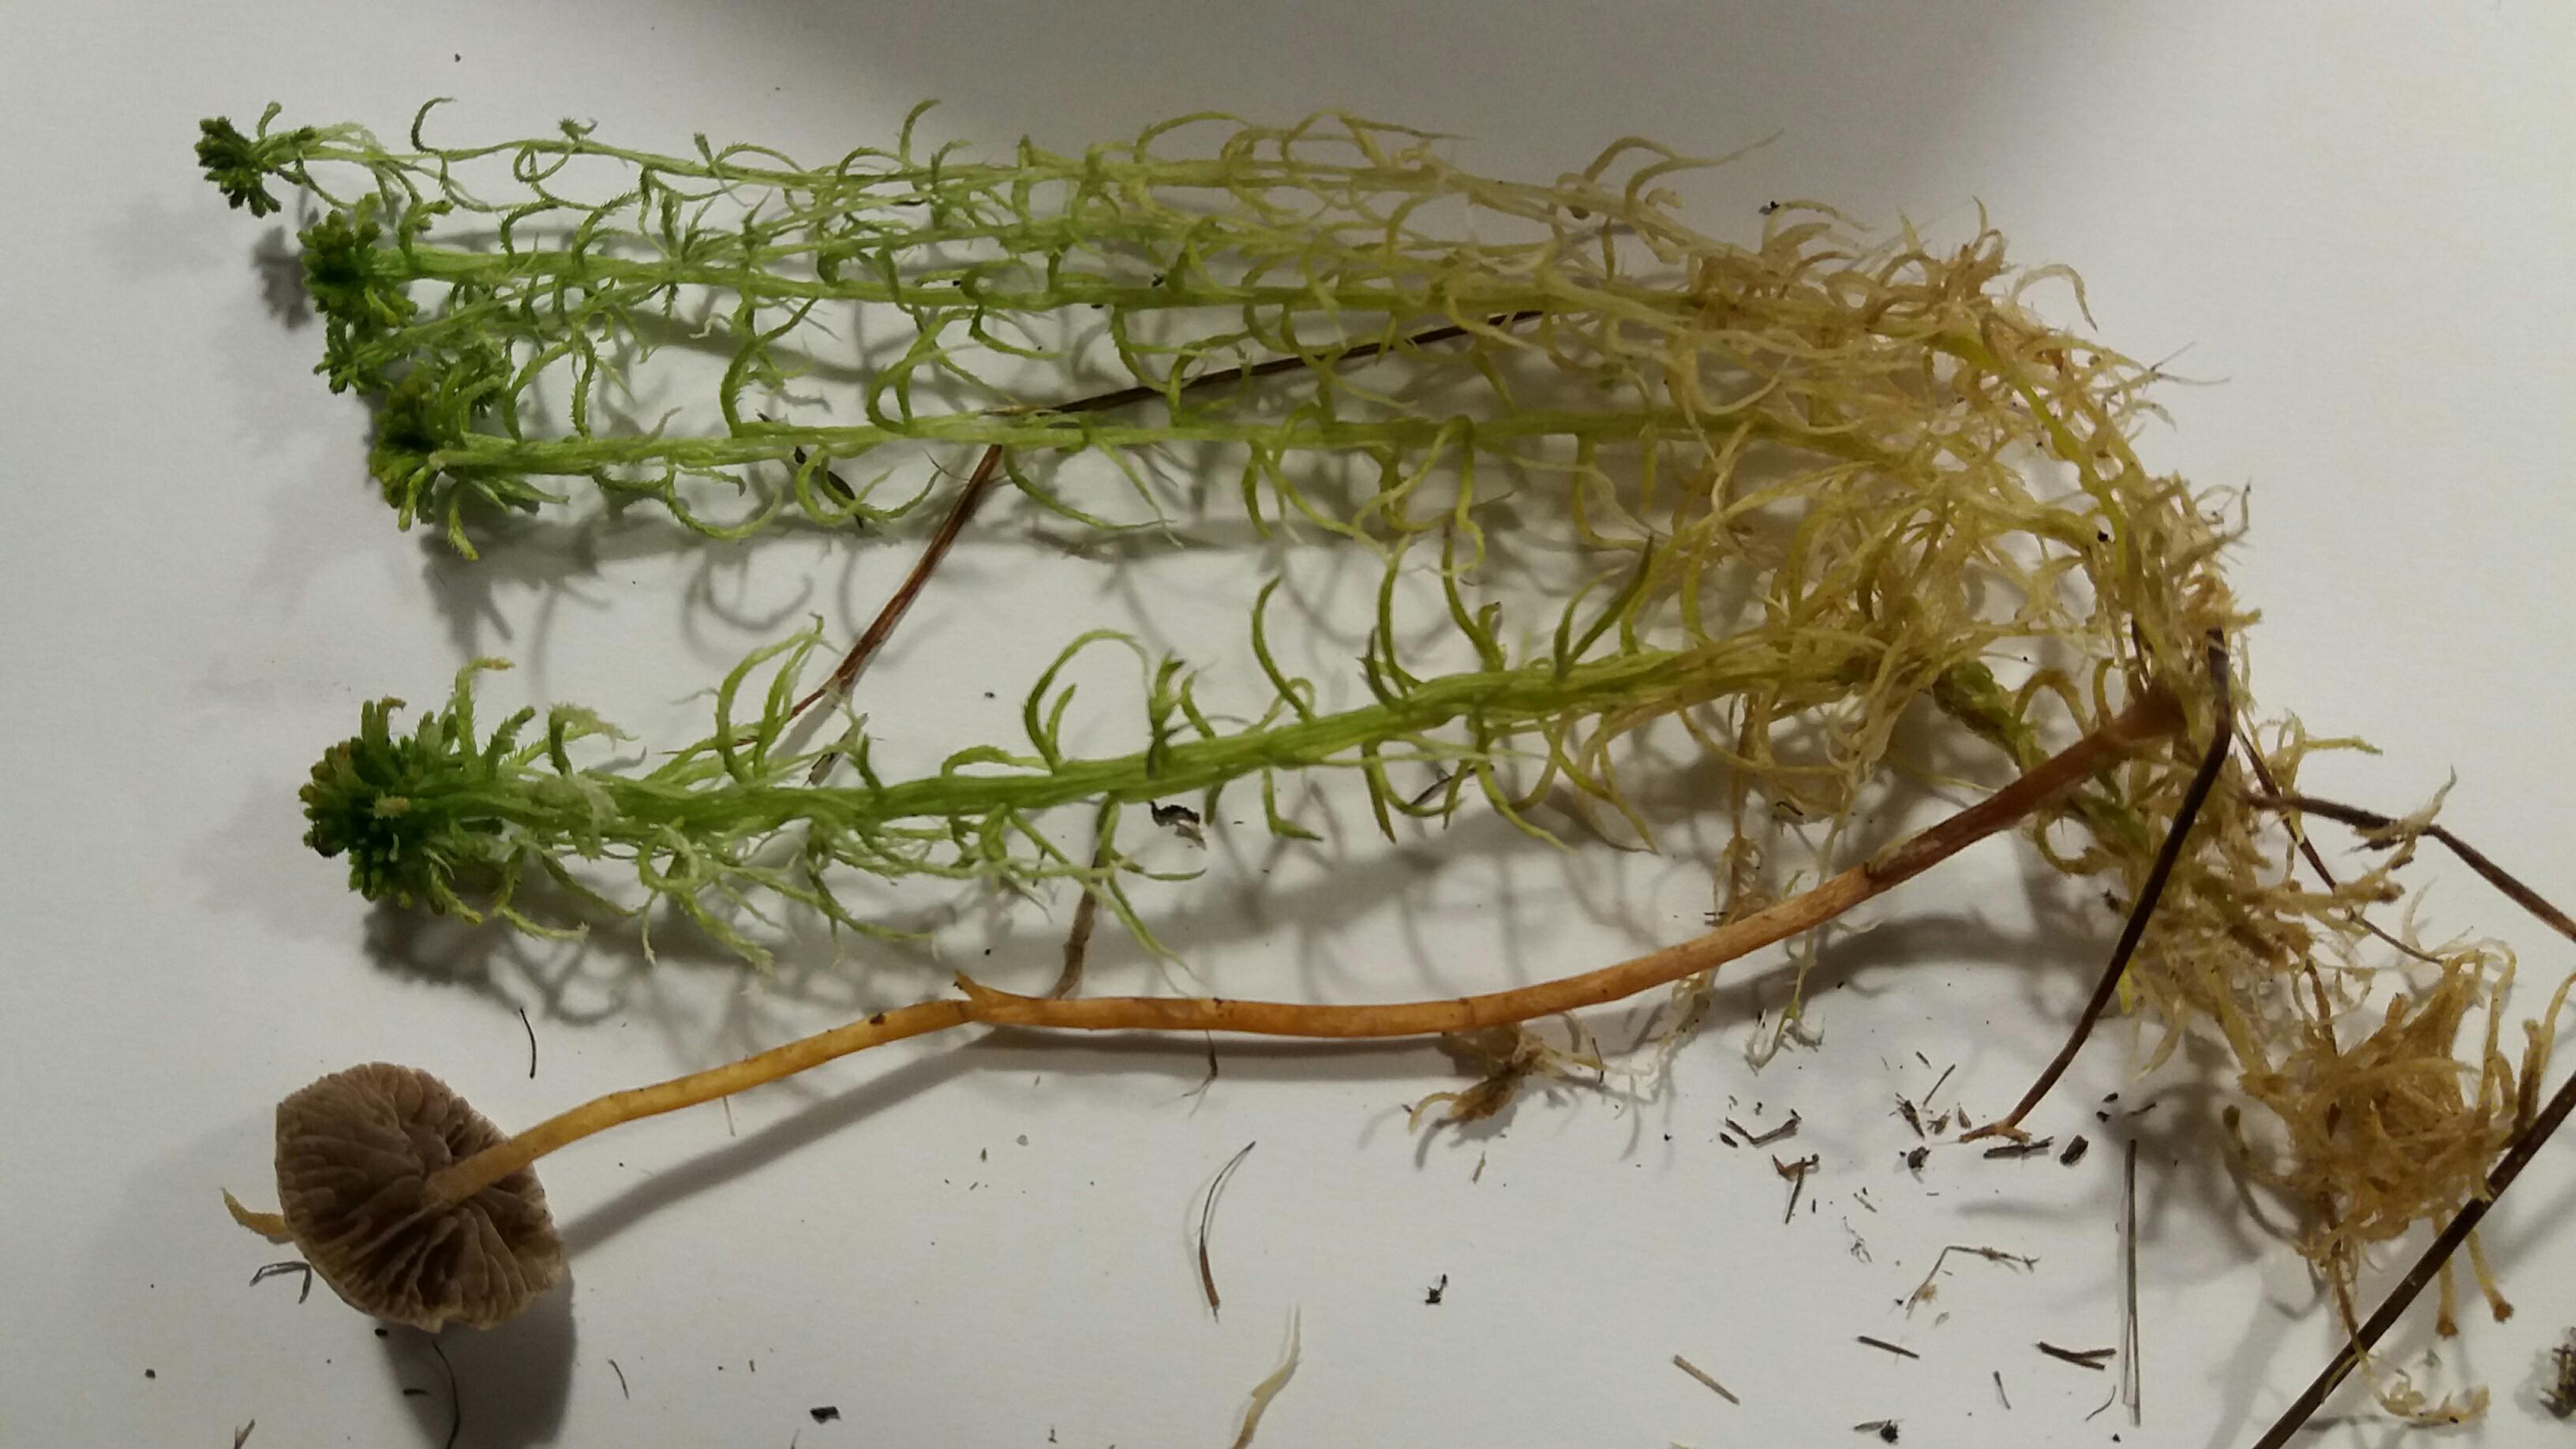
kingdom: Fungi
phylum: Basidiomycota
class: Agaricomycetes
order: Agaricales
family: Strophariaceae
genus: Hypholoma
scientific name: Hypholoma elongatum
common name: slank svovlhat
